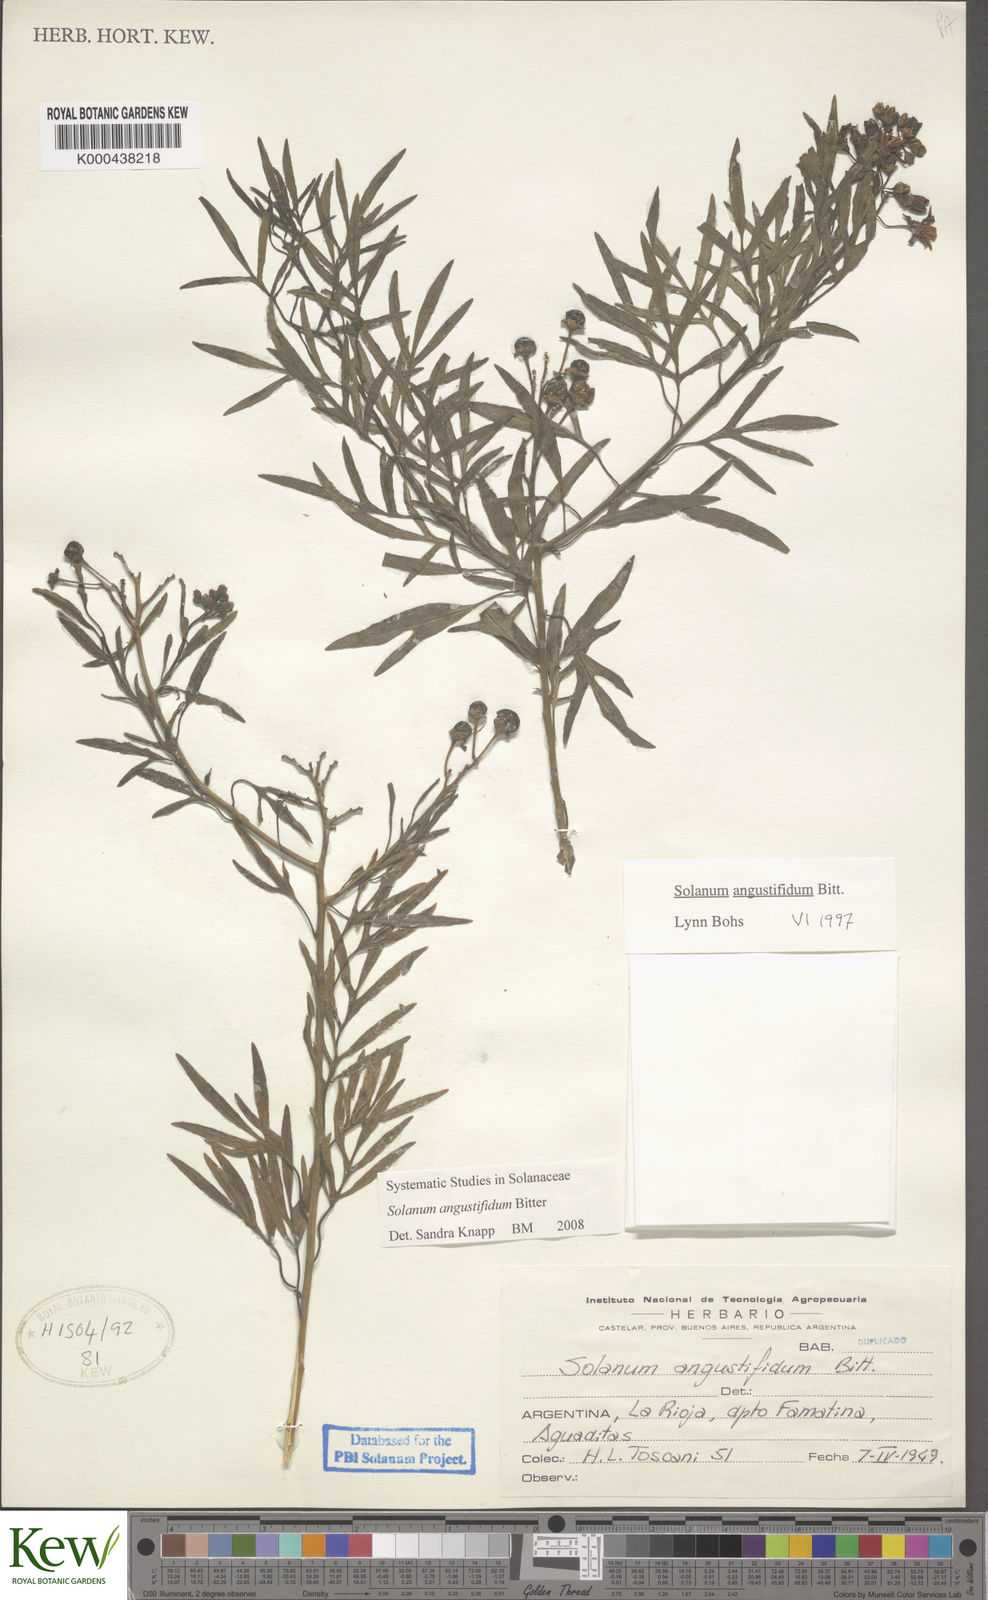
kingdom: Plantae
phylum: Tracheophyta
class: Magnoliopsida
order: Solanales
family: Solanaceae
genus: Solanum
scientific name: Solanum angustifidum
